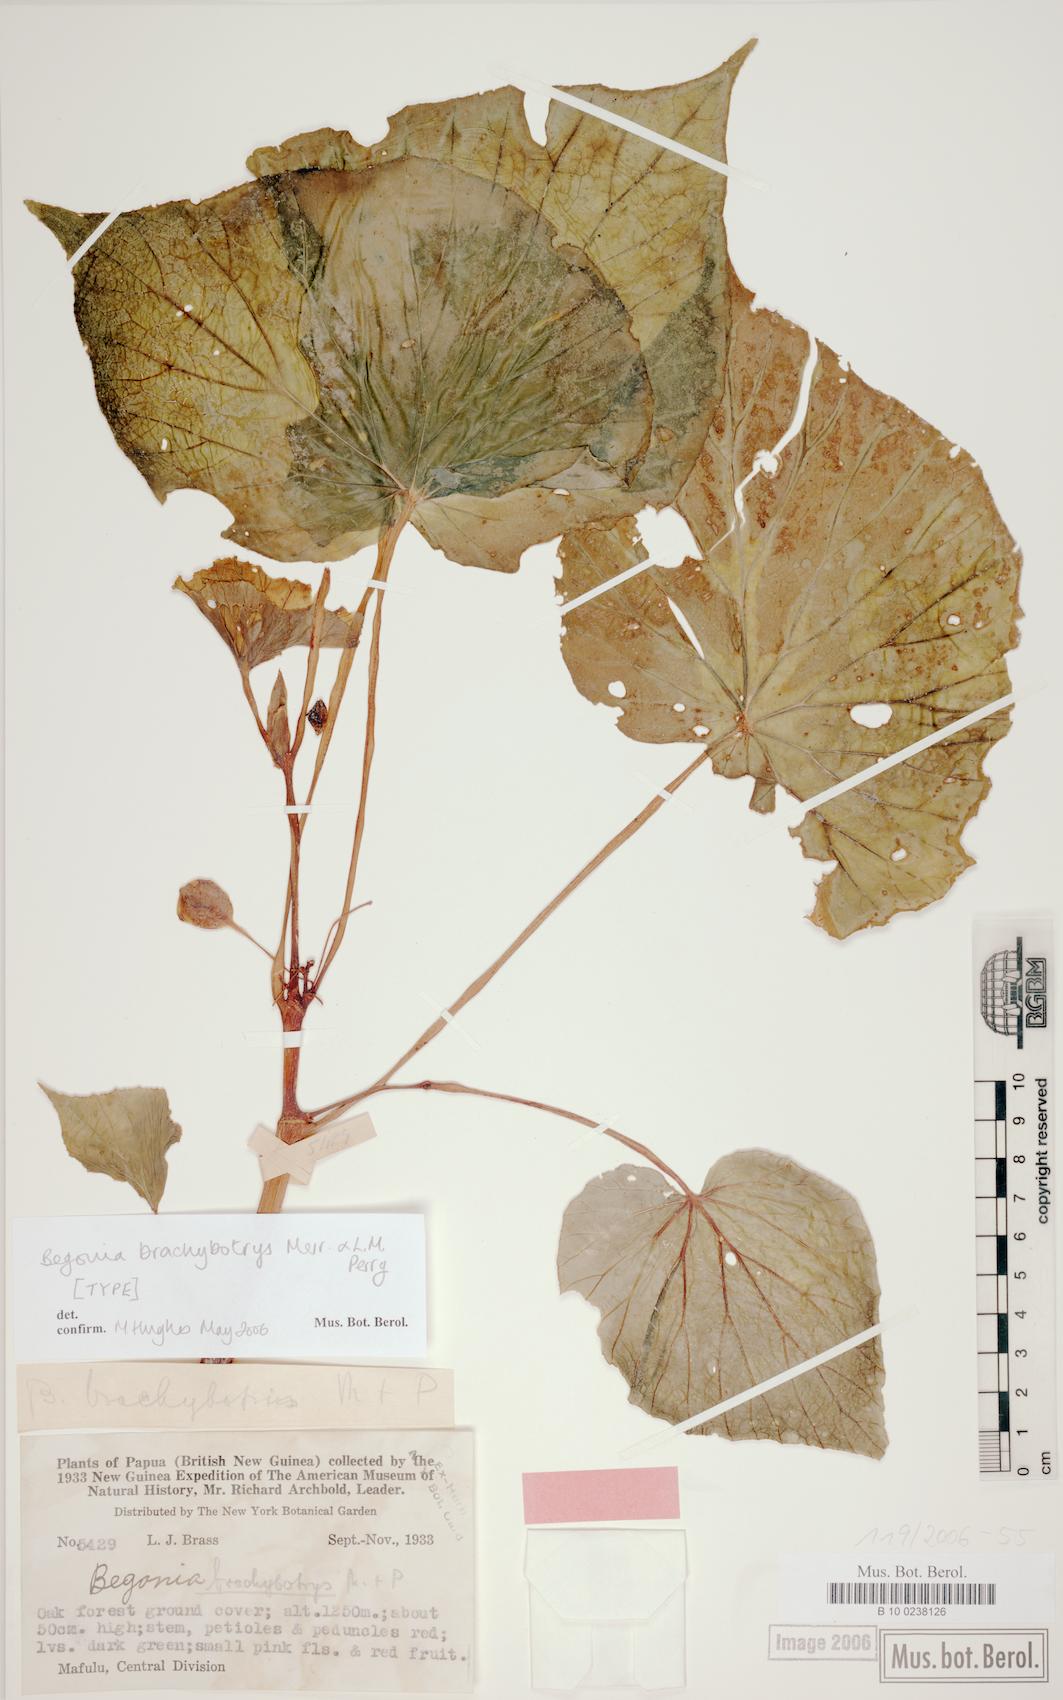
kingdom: Plantae
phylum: Tracheophyta
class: Magnoliopsida
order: Cucurbitales
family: Begoniaceae
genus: Begonia
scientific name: Begonia brachybotrys
